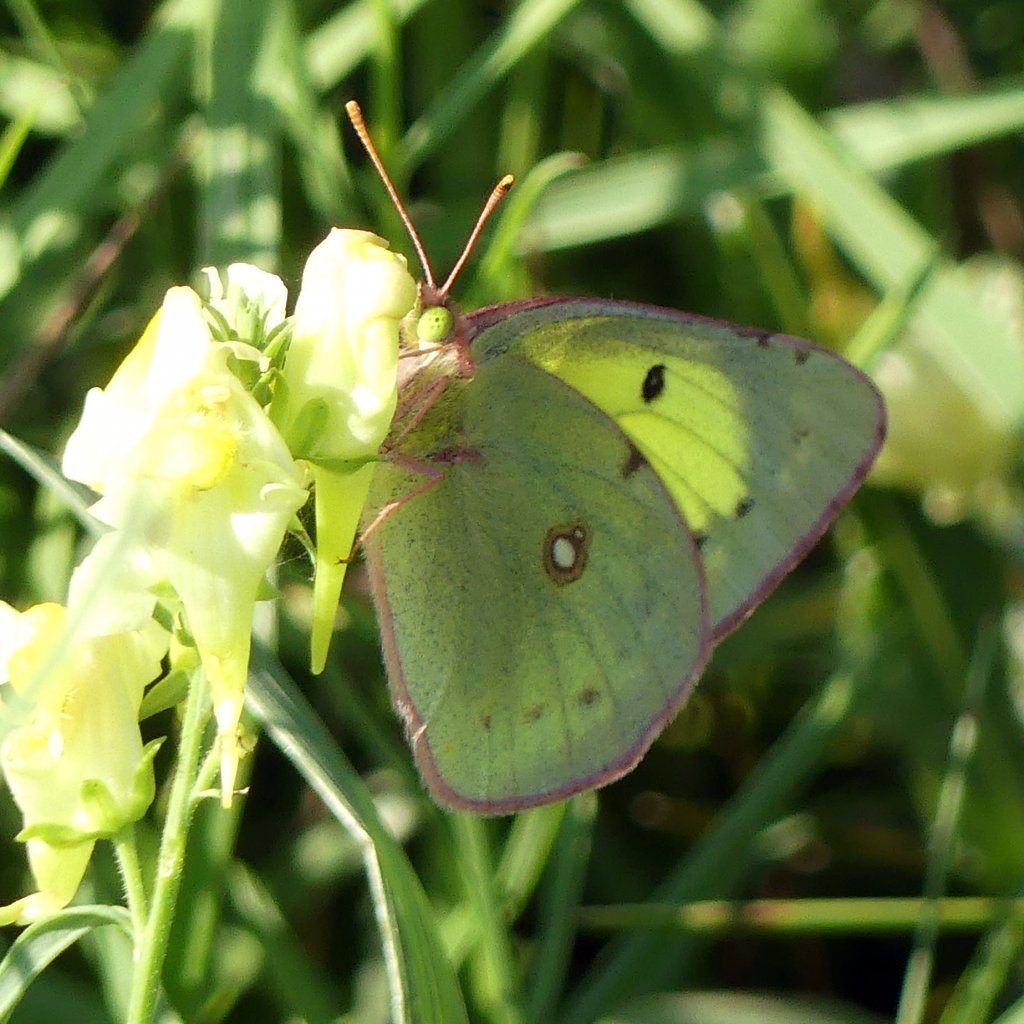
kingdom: Animalia
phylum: Arthropoda
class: Insecta
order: Lepidoptera
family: Pieridae
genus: Colias
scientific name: Colias philodice
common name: Clouded Sulphur
